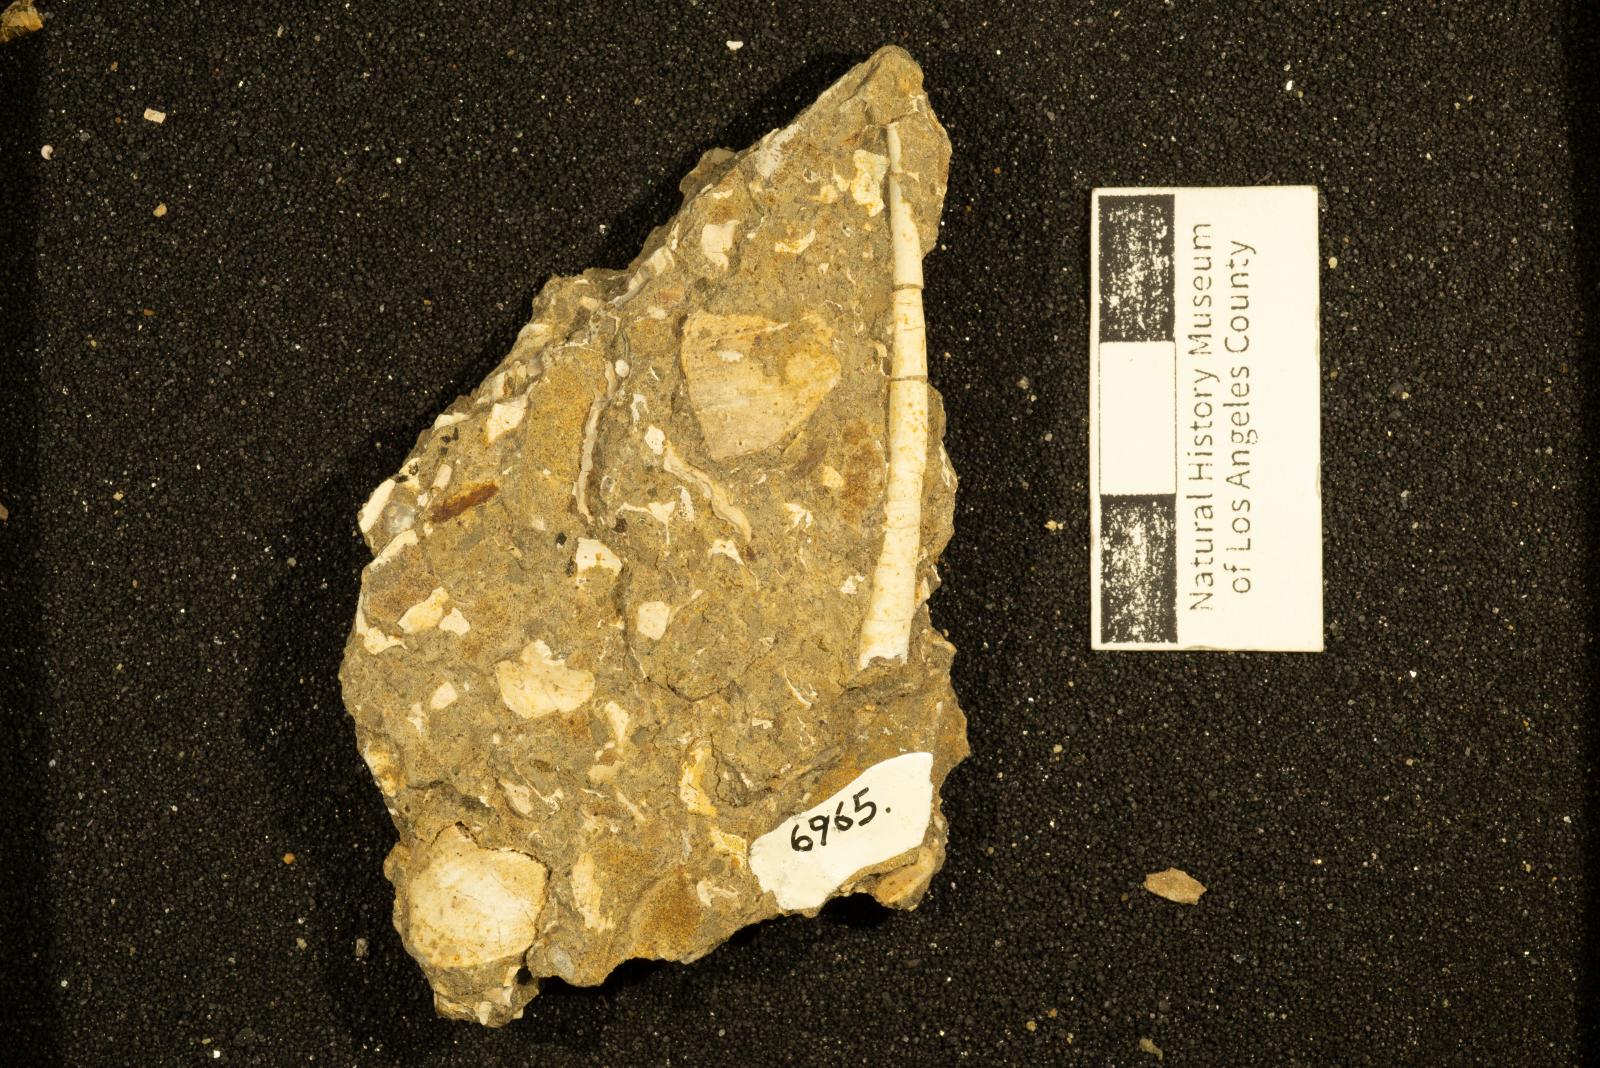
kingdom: Animalia
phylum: Mollusca
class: Scaphopoda
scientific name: Scaphopoda
